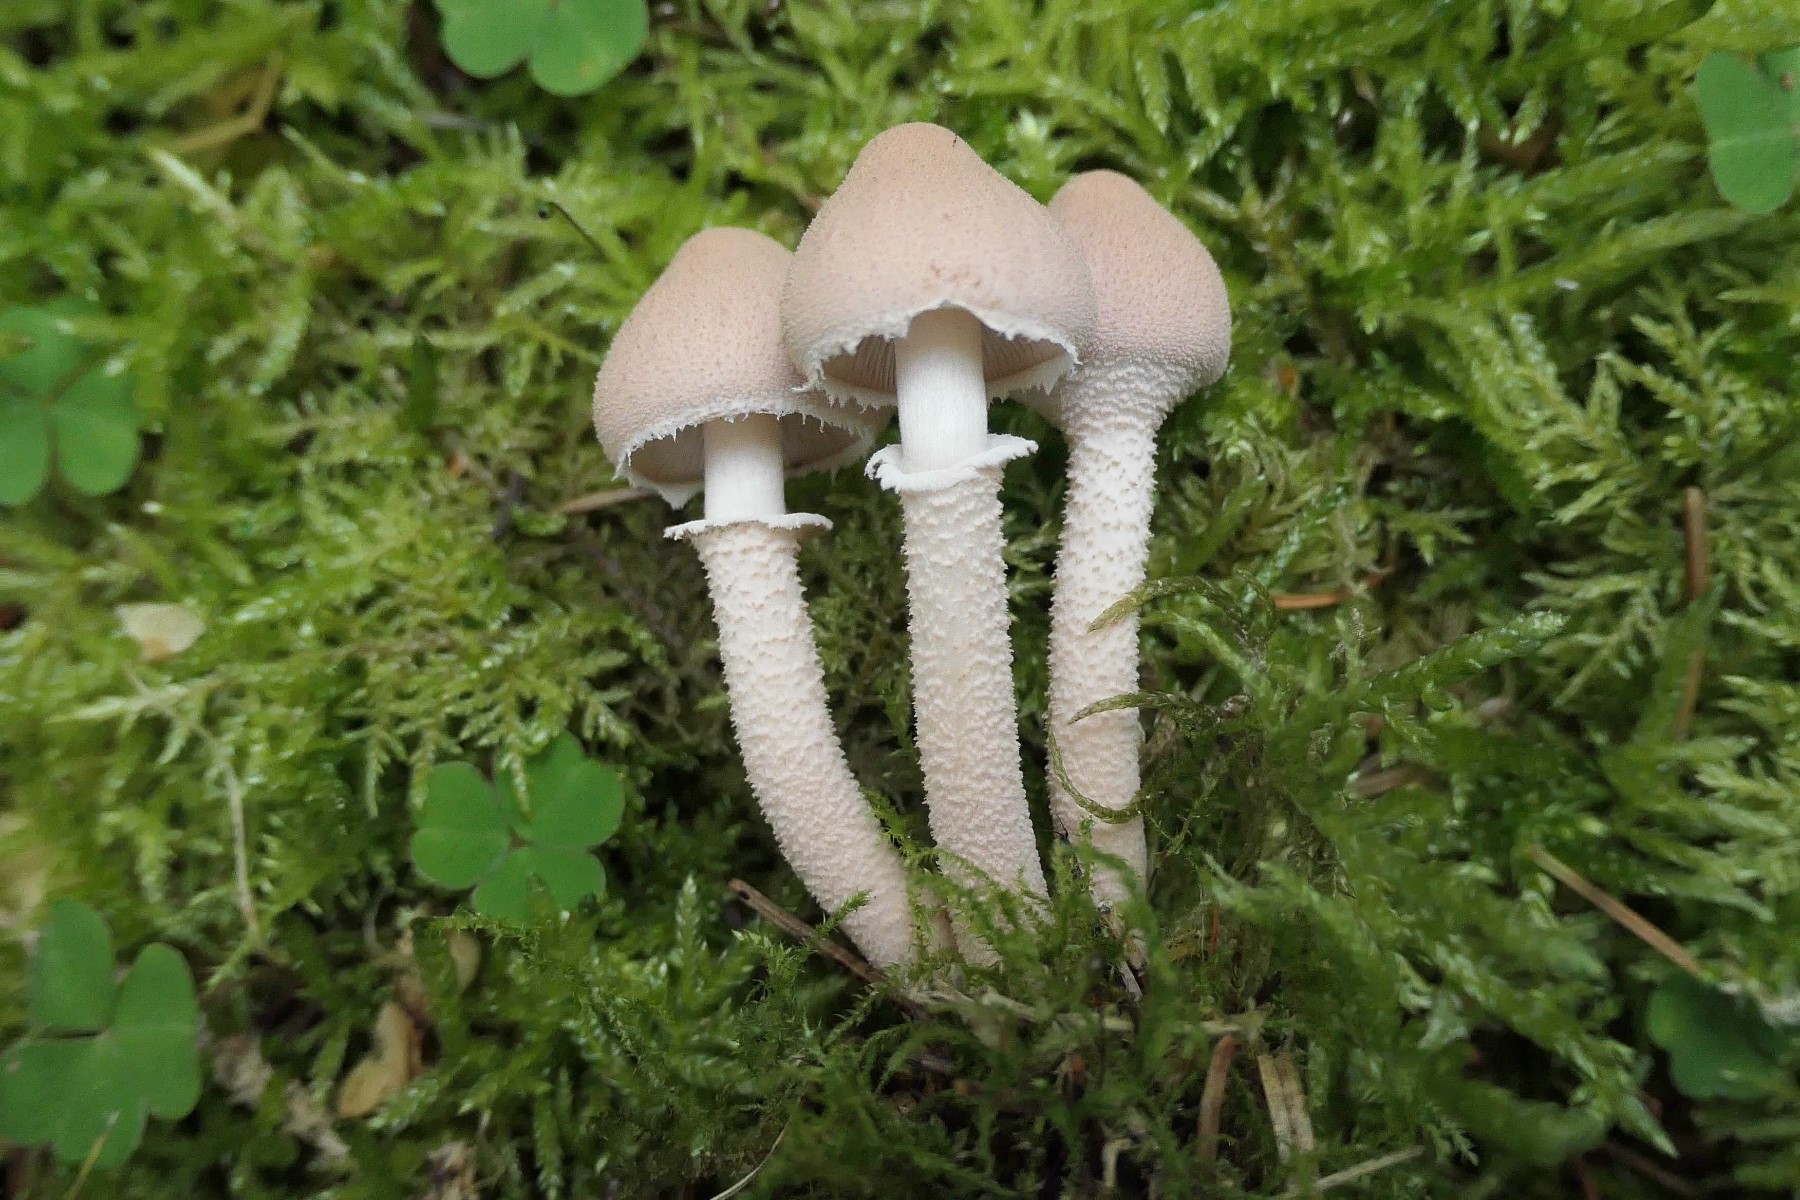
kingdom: Fungi
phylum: Basidiomycota
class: Agaricomycetes
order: Agaricales
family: Tricholomataceae
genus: Cystoderma
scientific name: Cystoderma carcharias
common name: rødgrå grynhat
